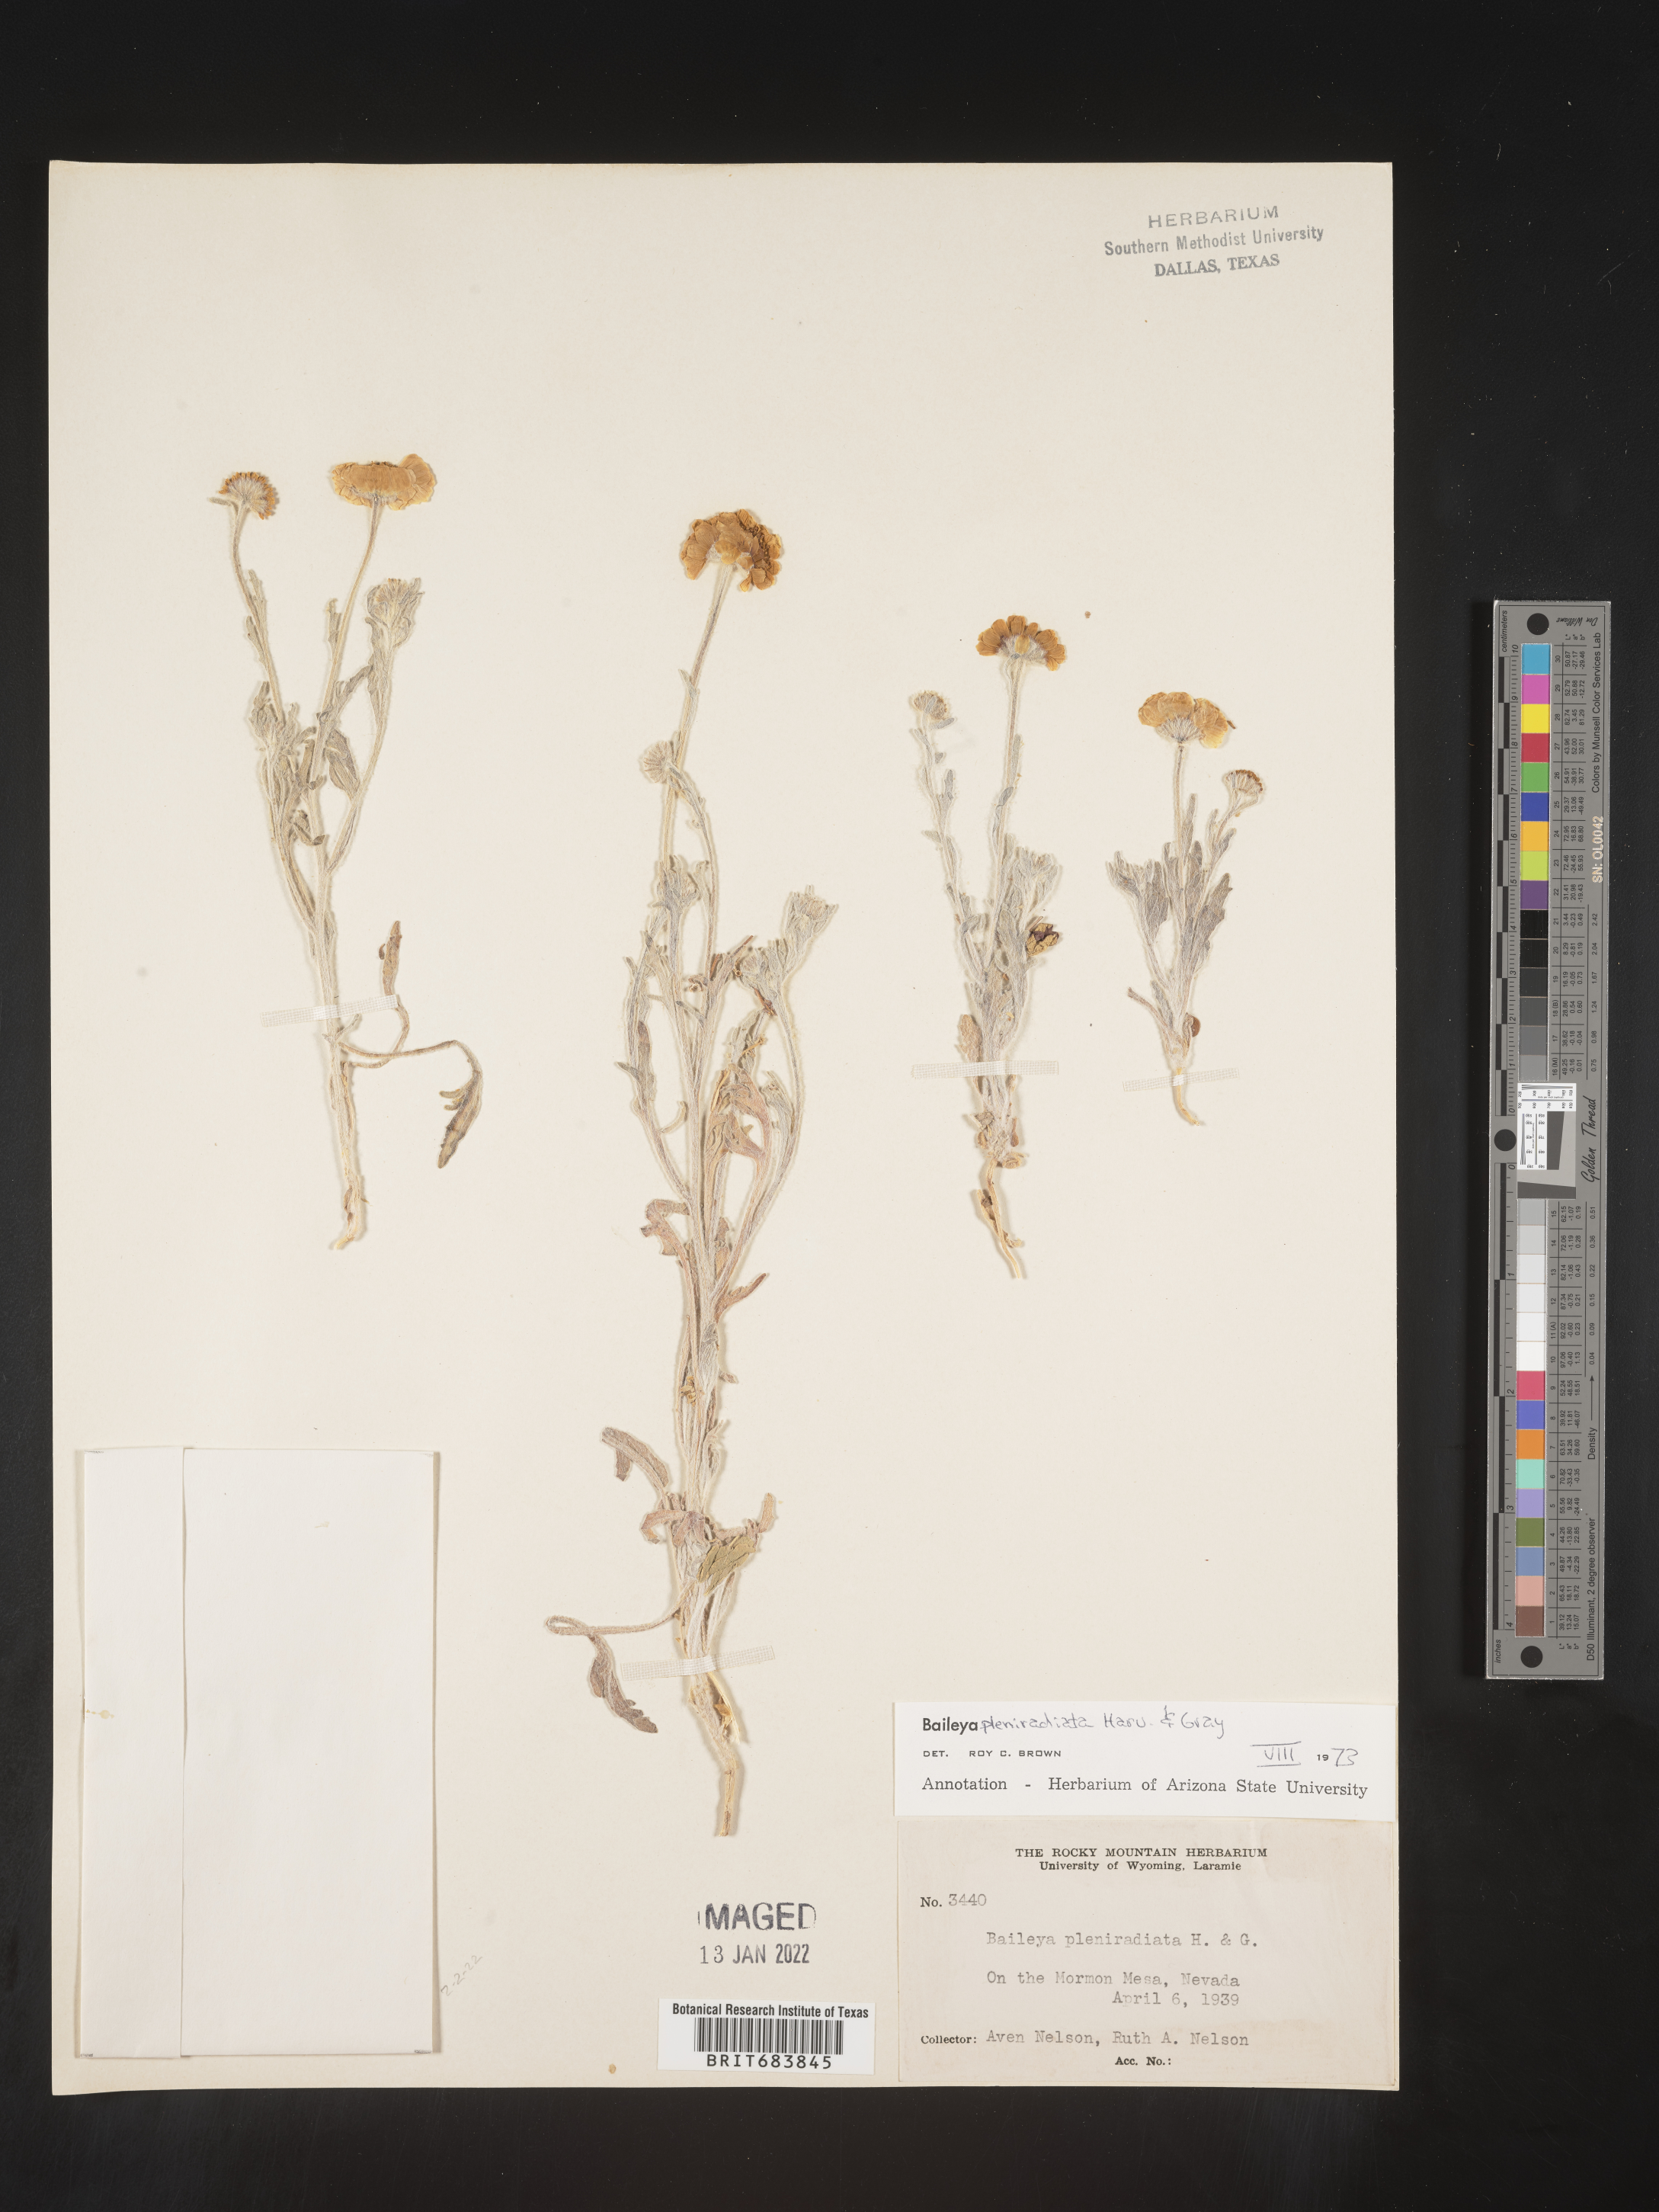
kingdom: Plantae
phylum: Tracheophyta
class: Magnoliopsida
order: Asterales
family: Asteraceae
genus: Baileya
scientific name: Baileya pleniradiata
